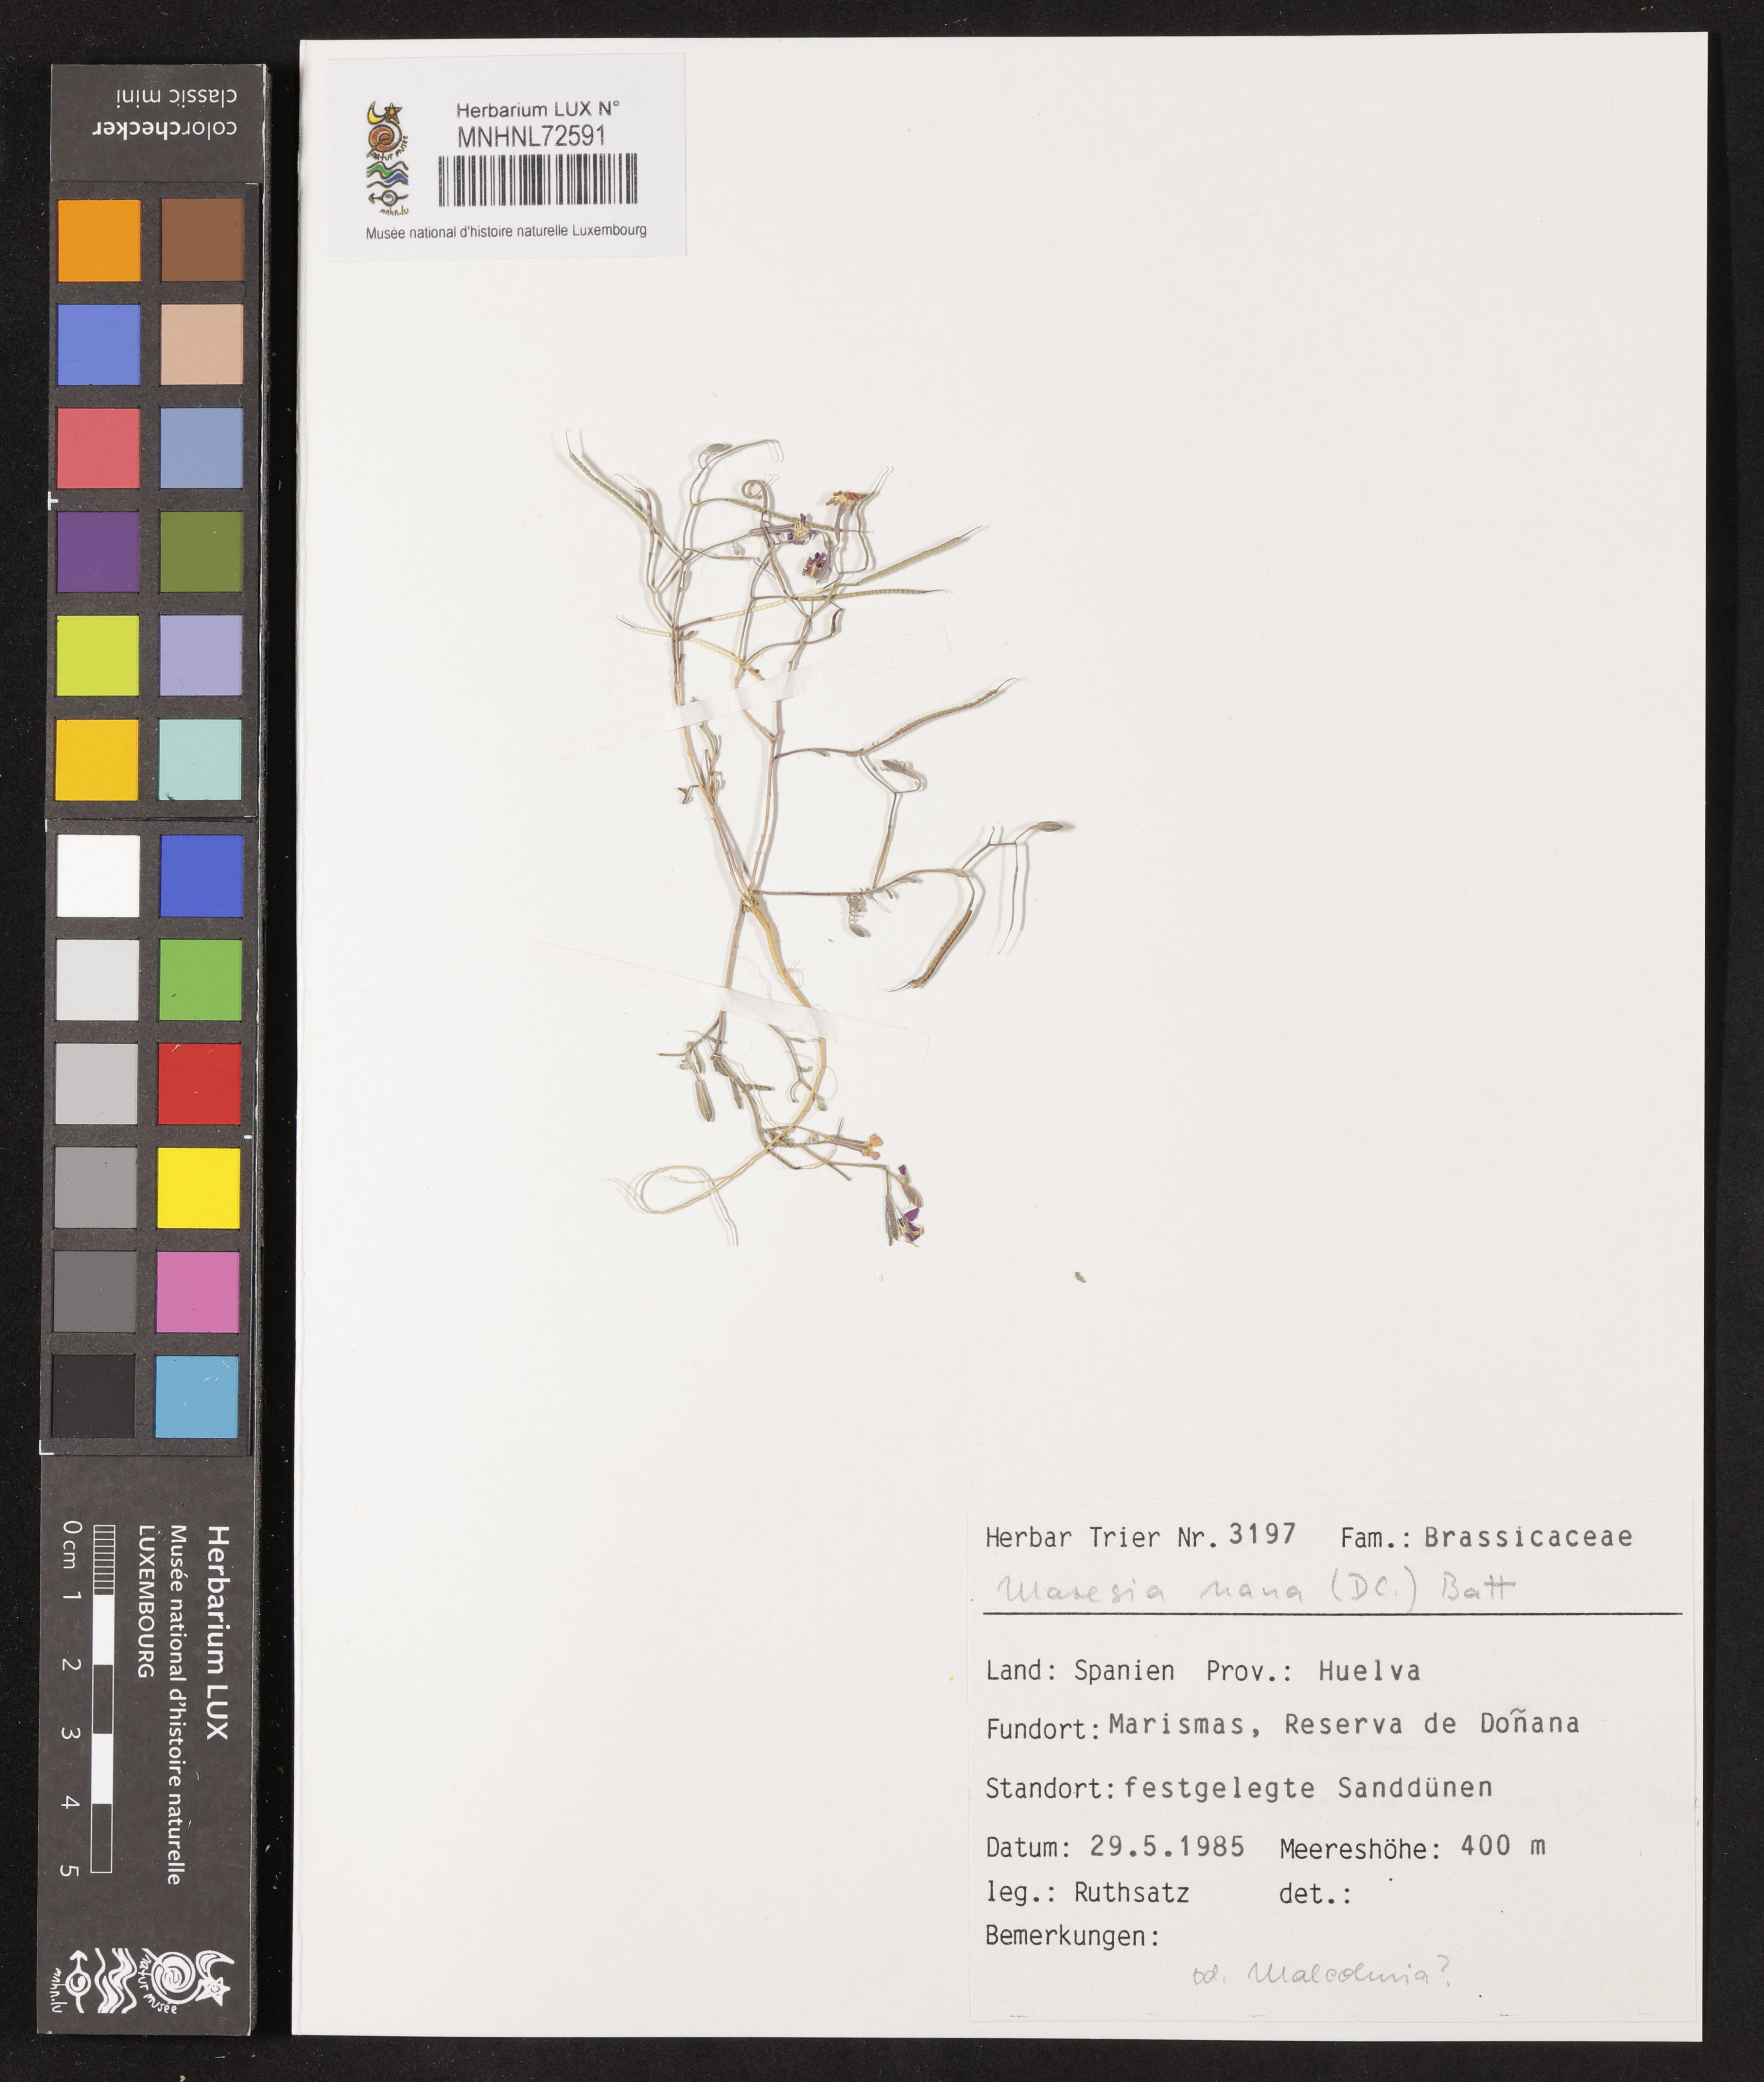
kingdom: Plantae
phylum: Tracheophyta
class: Magnoliopsida
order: Brassicales
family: Brassicaceae
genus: Maresia
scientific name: Maresia nana
